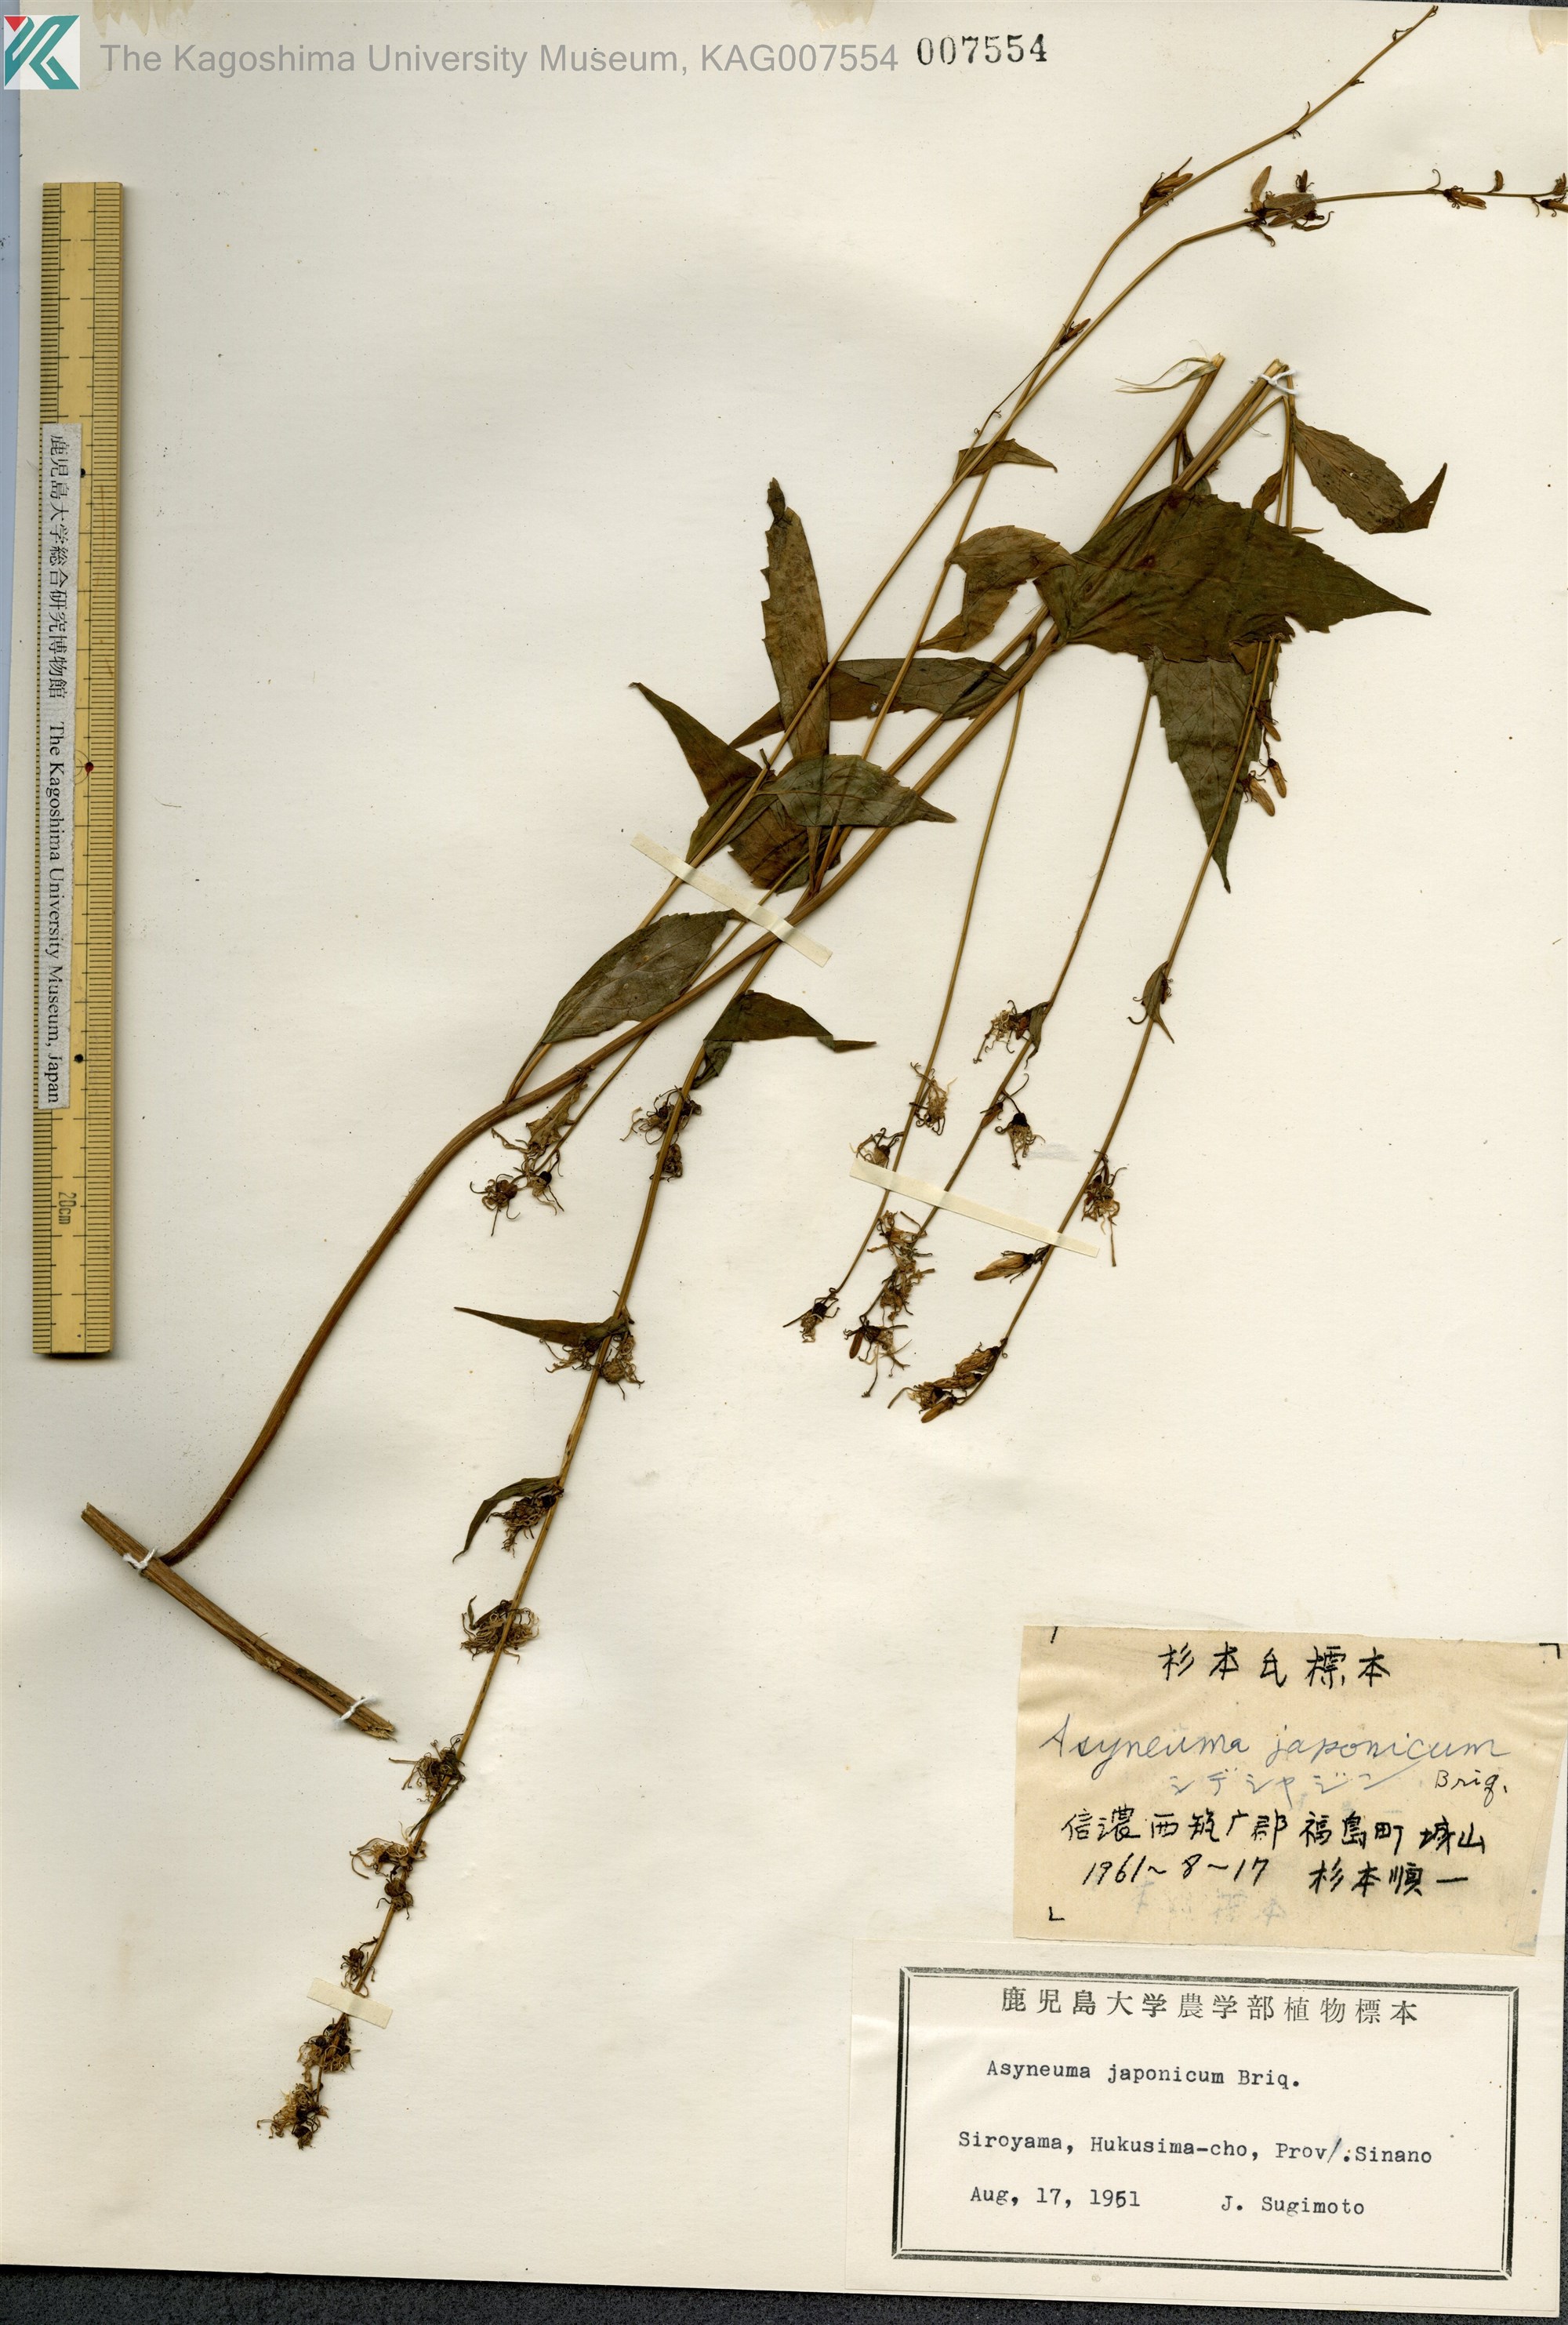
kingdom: Plantae
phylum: Tracheophyta
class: Magnoliopsida
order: Asterales
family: Campanulaceae
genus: Asyneuma
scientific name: Asyneuma japonicum
